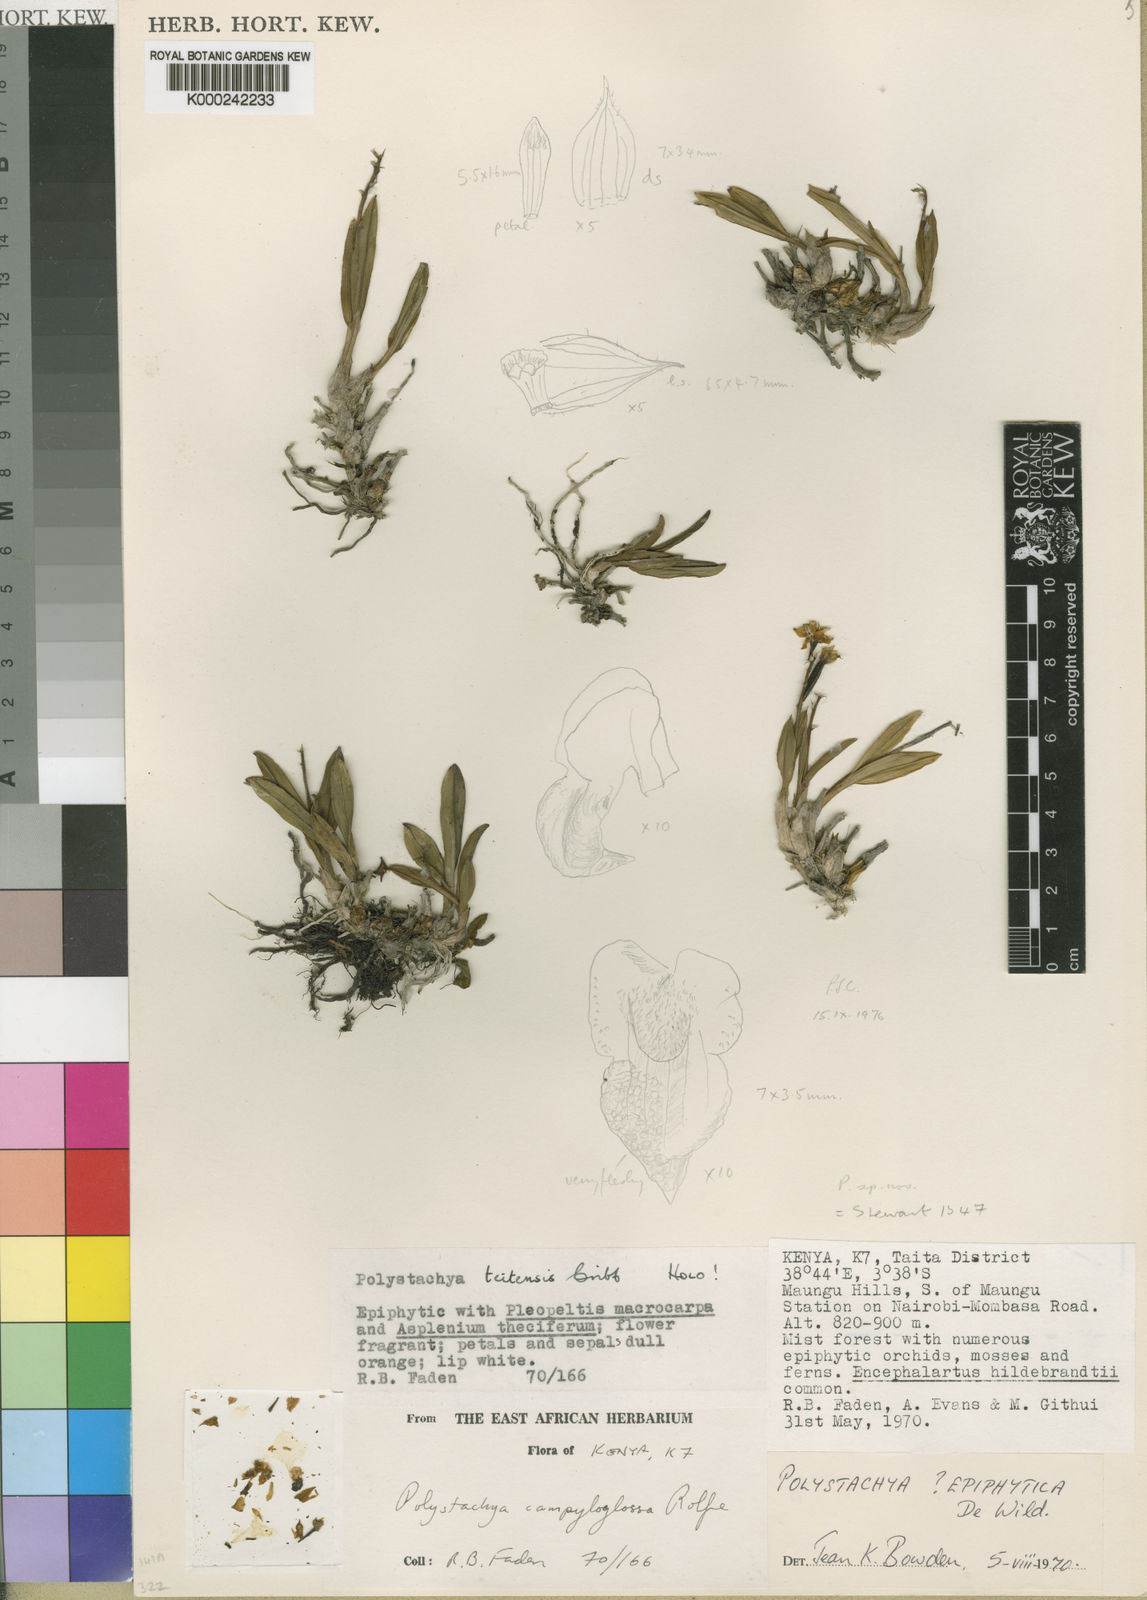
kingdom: Plantae
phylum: Tracheophyta
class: Liliopsida
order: Asparagales
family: Orchidaceae
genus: Polystachya
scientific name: Polystachya teitensis
